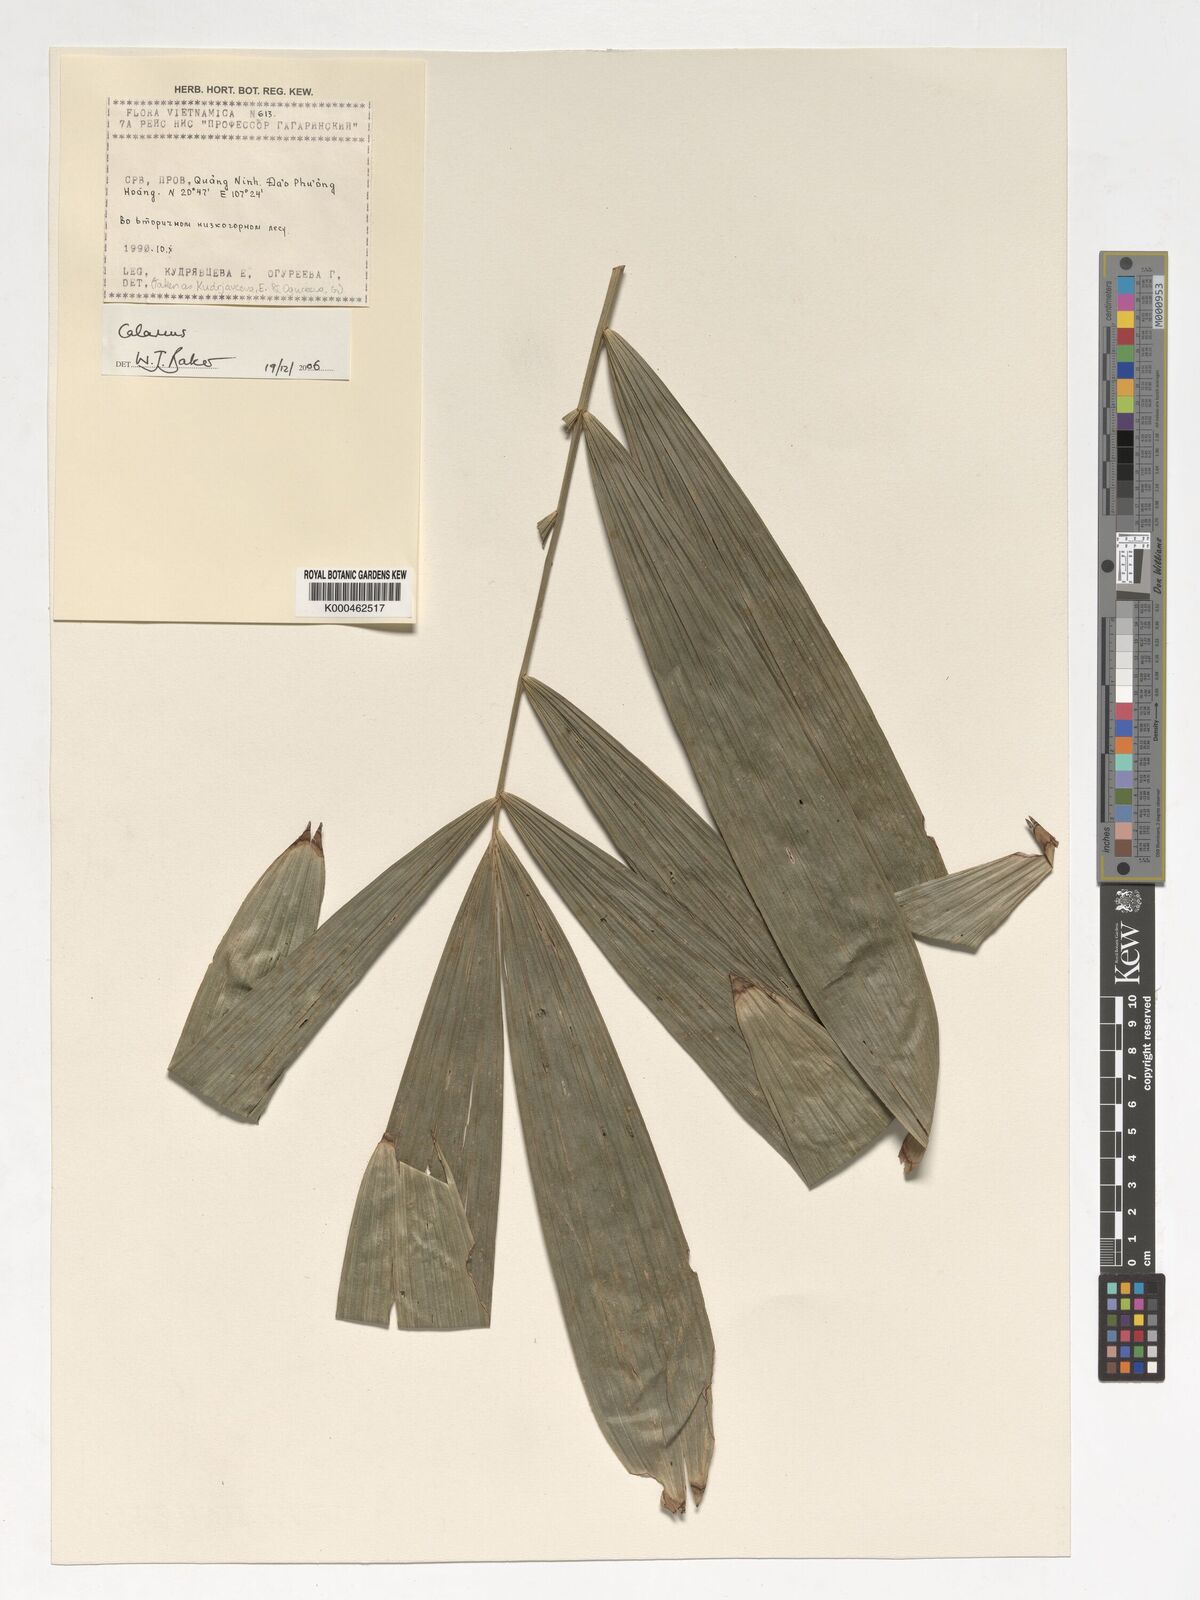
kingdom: Plantae
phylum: Tracheophyta
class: Liliopsida
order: Arecales
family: Arecaceae
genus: Calamus
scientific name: Calamus
